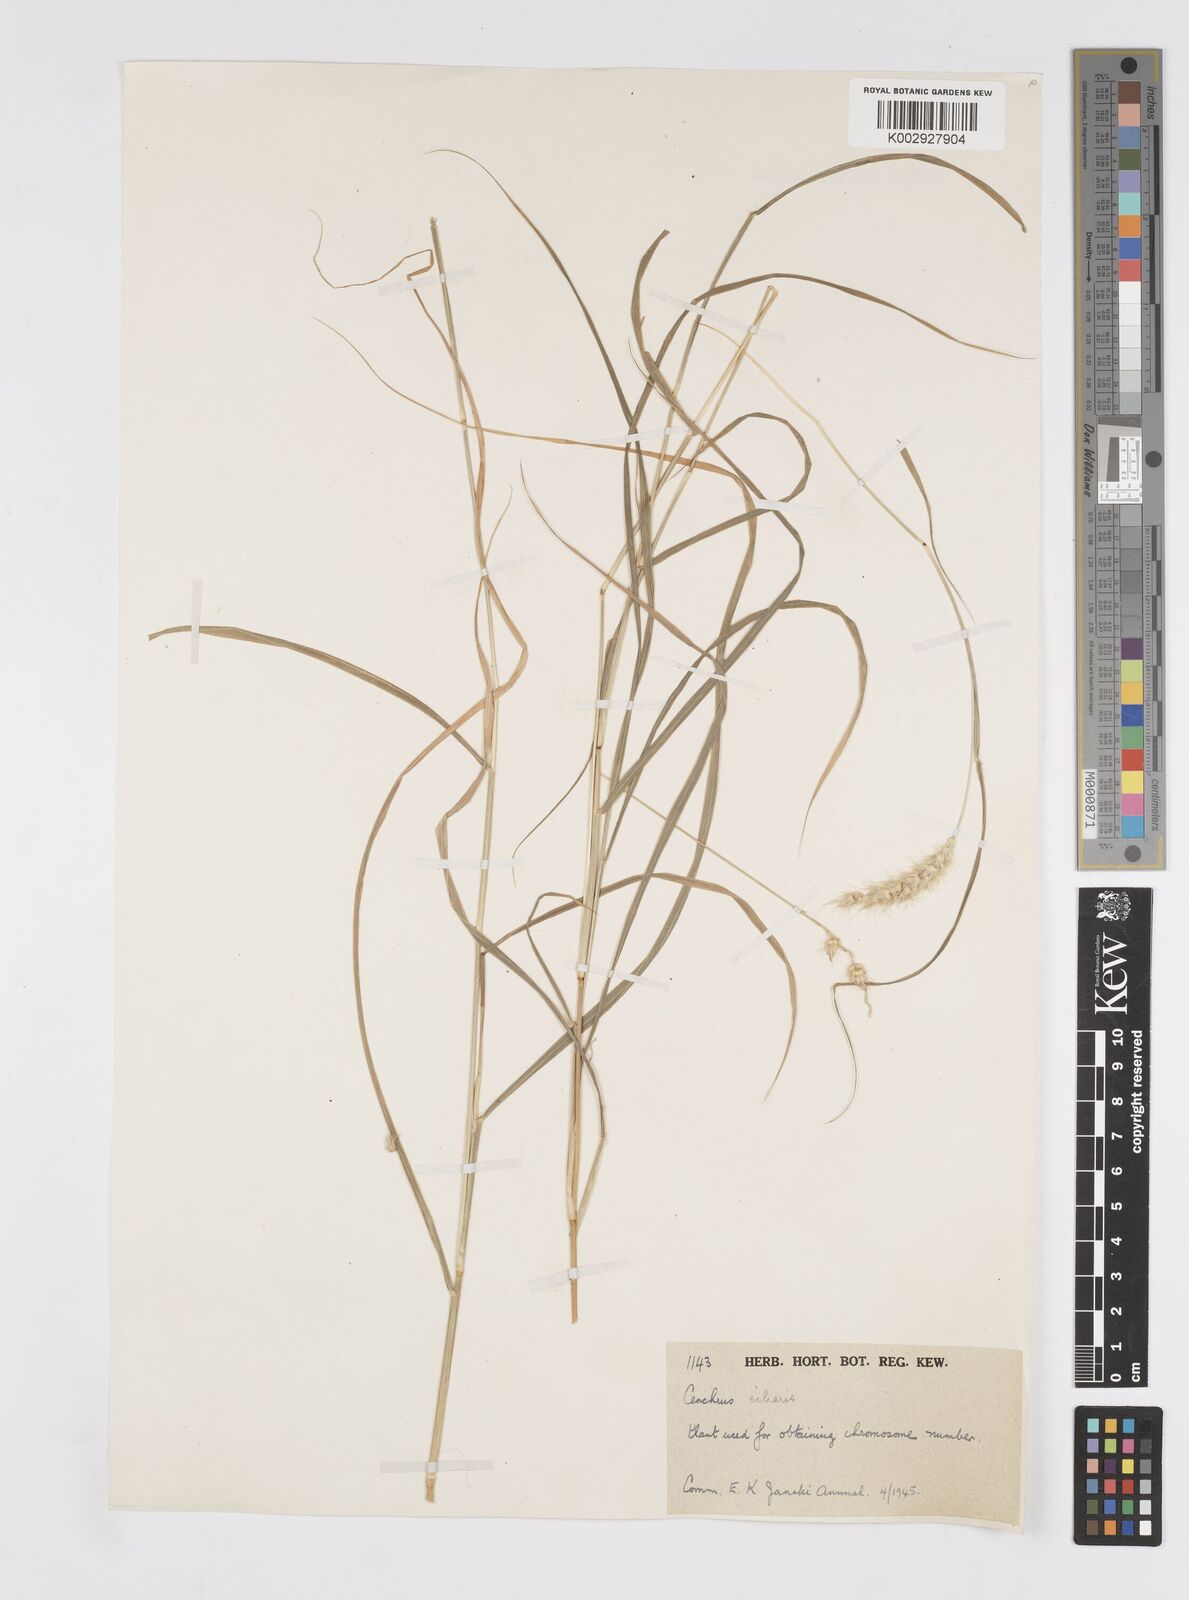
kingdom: Plantae
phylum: Tracheophyta
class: Liliopsida
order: Poales
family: Poaceae
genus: Cenchrus
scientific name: Cenchrus pennisetiformis
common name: Cloncurry
